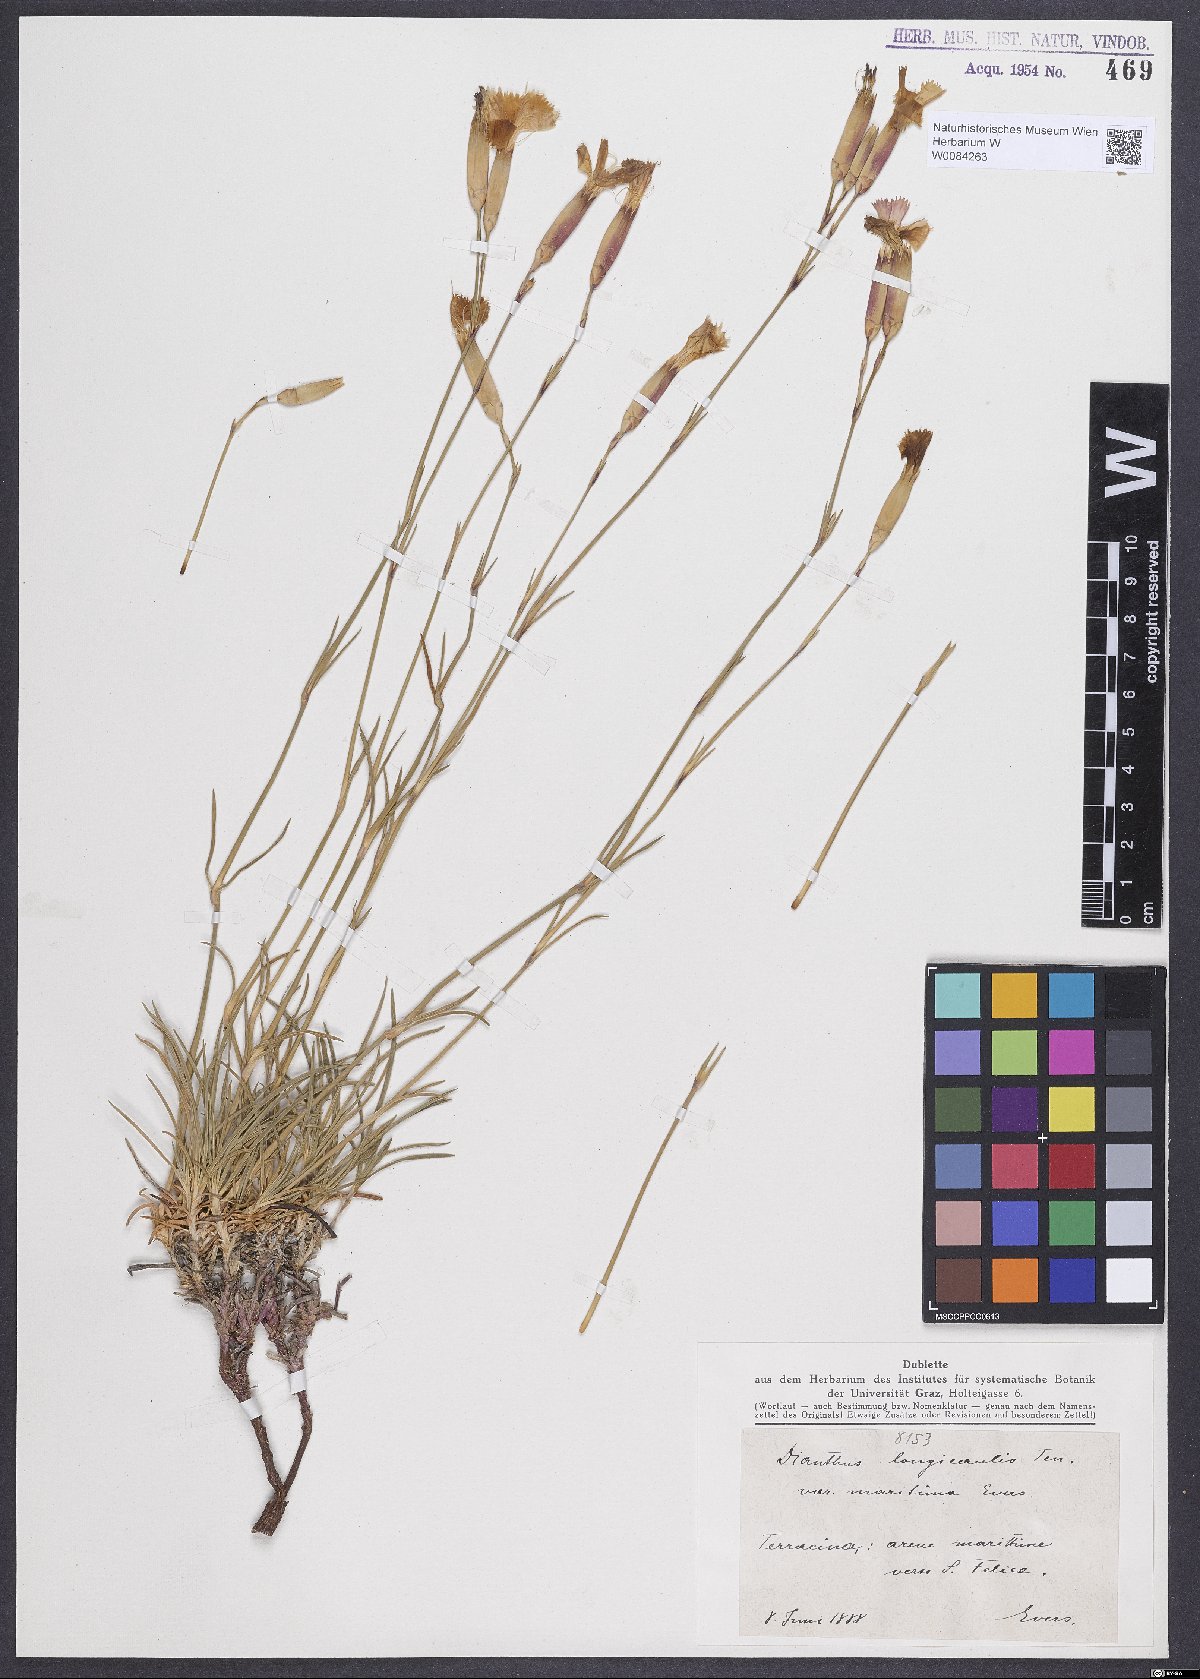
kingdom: Plantae
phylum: Tracheophyta
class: Magnoliopsida
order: Caryophyllales
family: Caryophyllaceae
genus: Dianthus
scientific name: Dianthus virgineus
